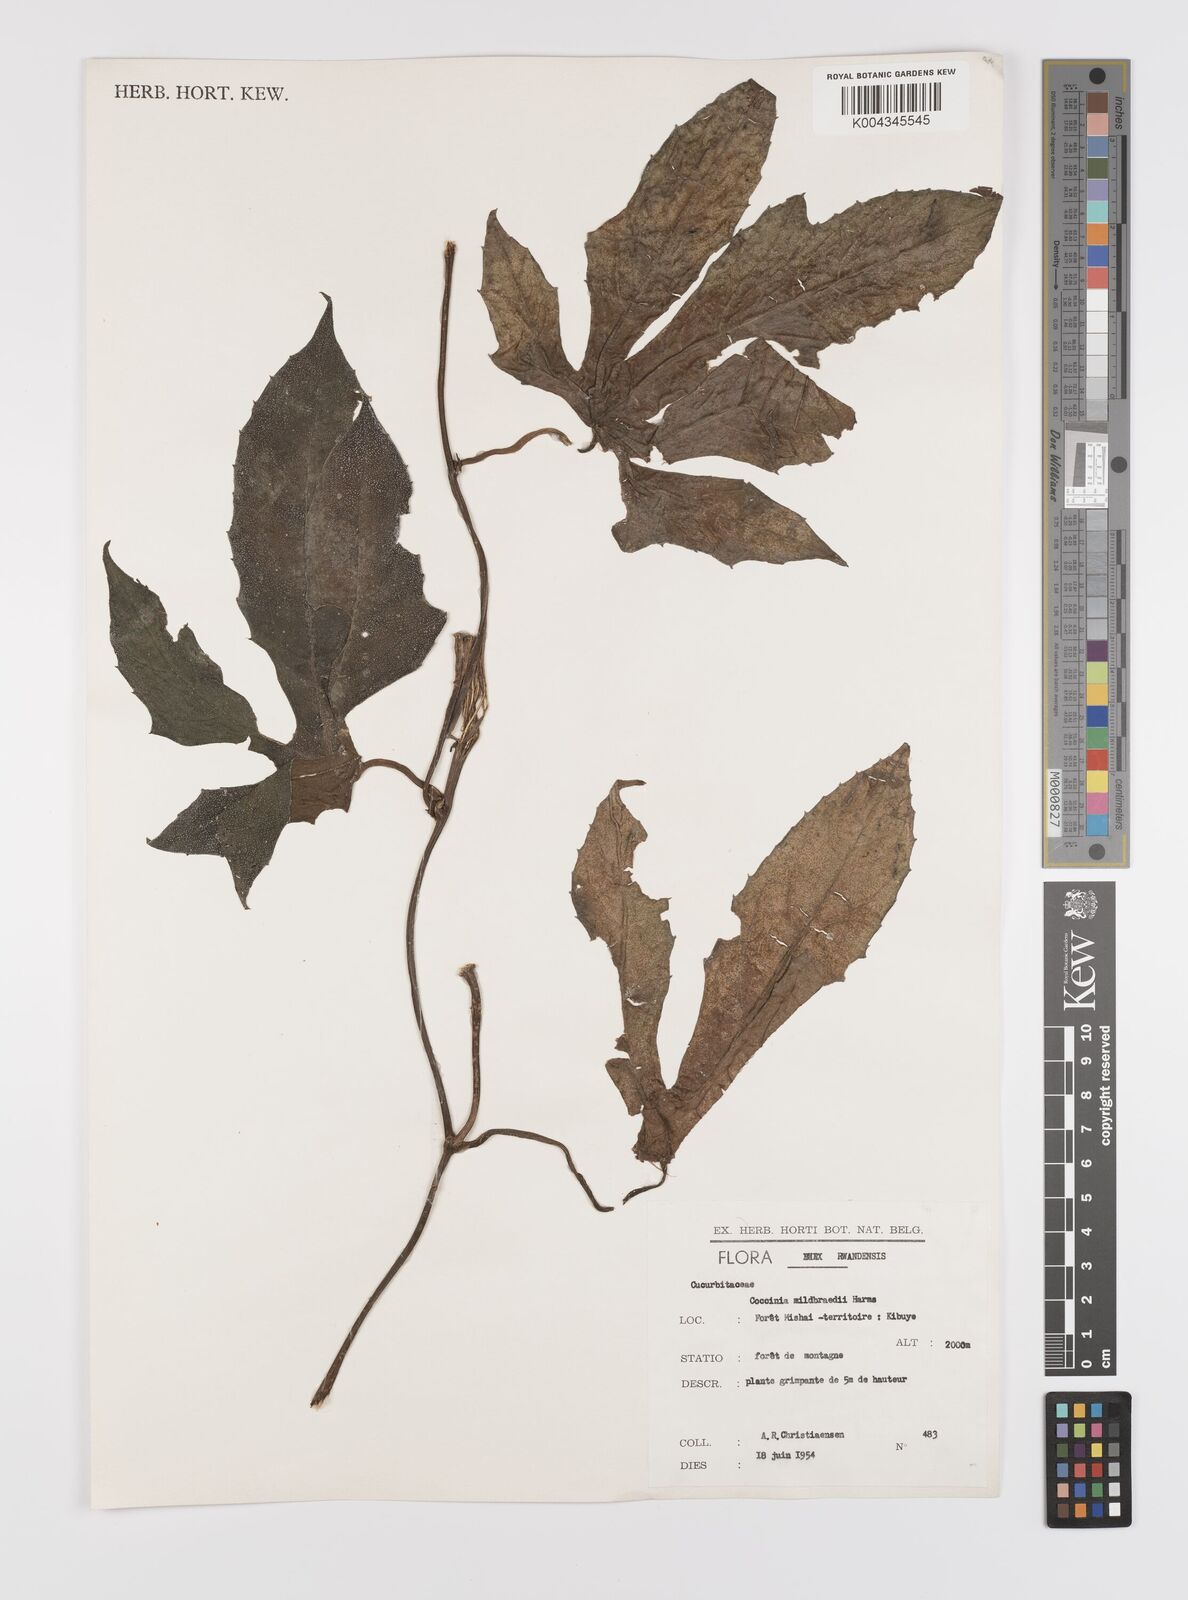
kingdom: Plantae
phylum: Tracheophyta
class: Magnoliopsida
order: Cucurbitales
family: Cucurbitaceae
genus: Coccinia
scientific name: Coccinia mildbraedii
